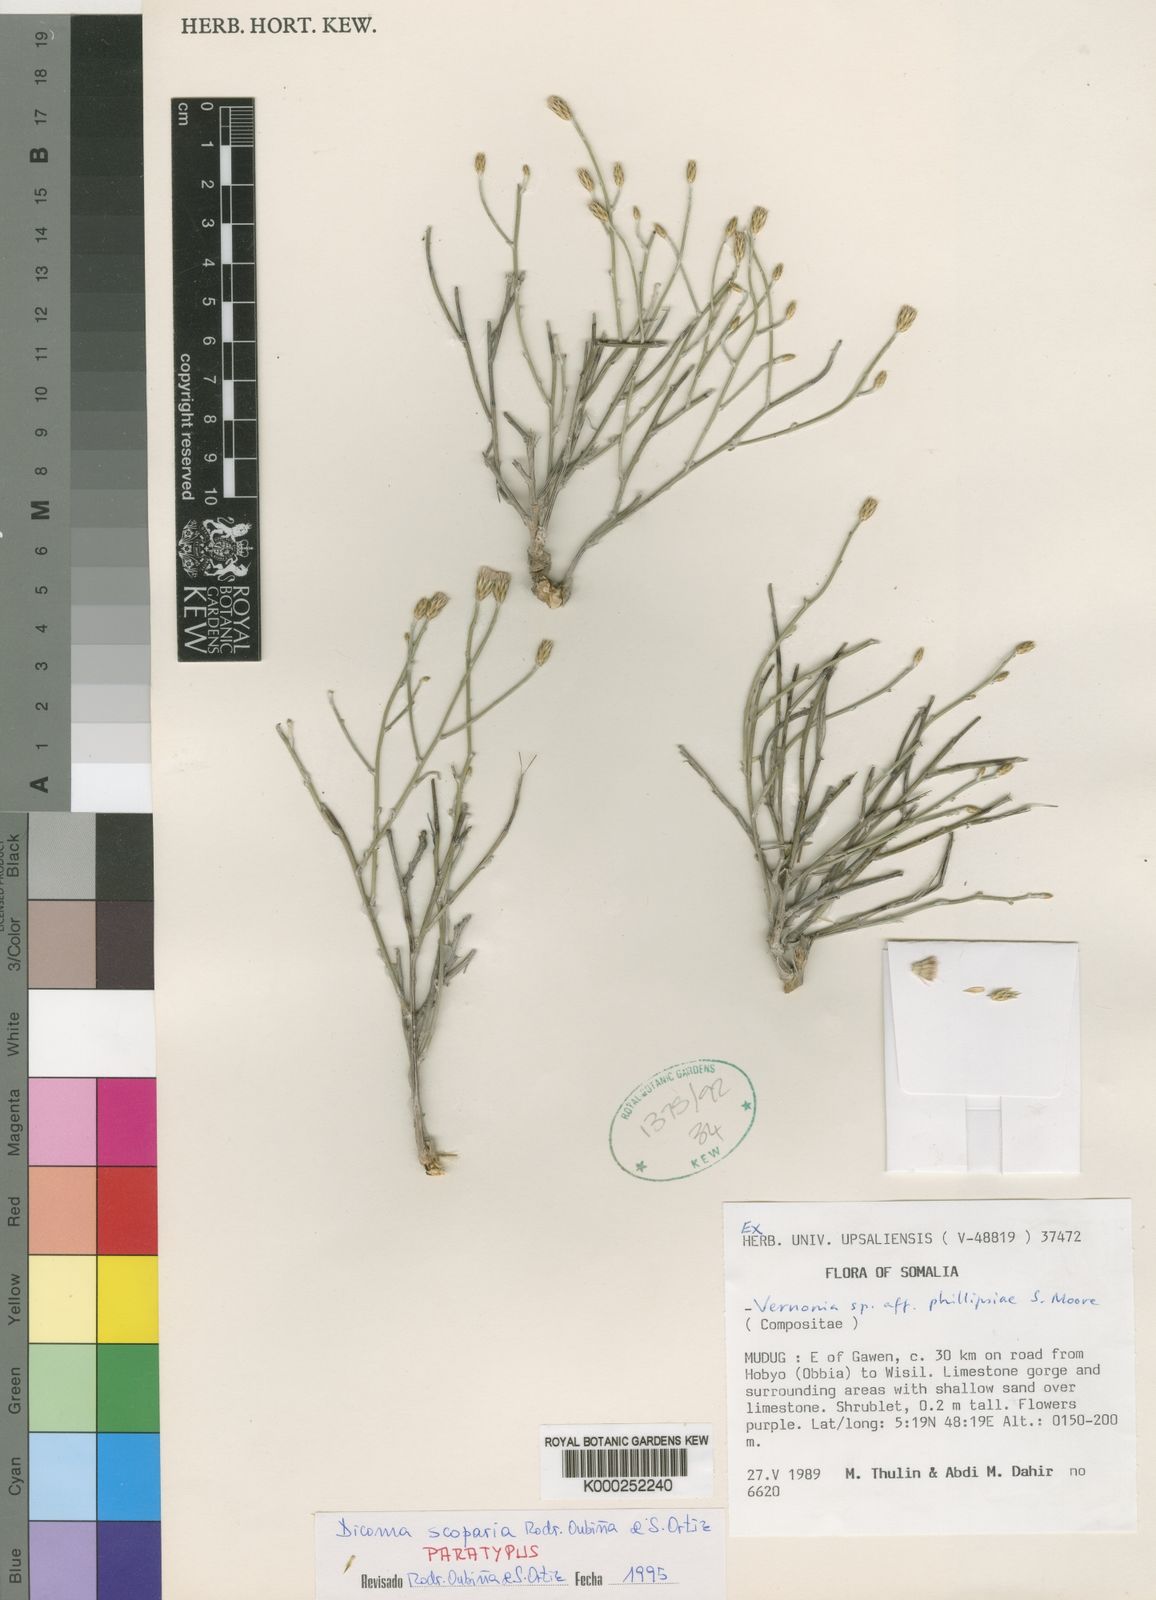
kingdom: Plantae
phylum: Tracheophyta
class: Magnoliopsida
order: Asterales
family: Asteraceae
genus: Dicoma
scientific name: Dicoma
